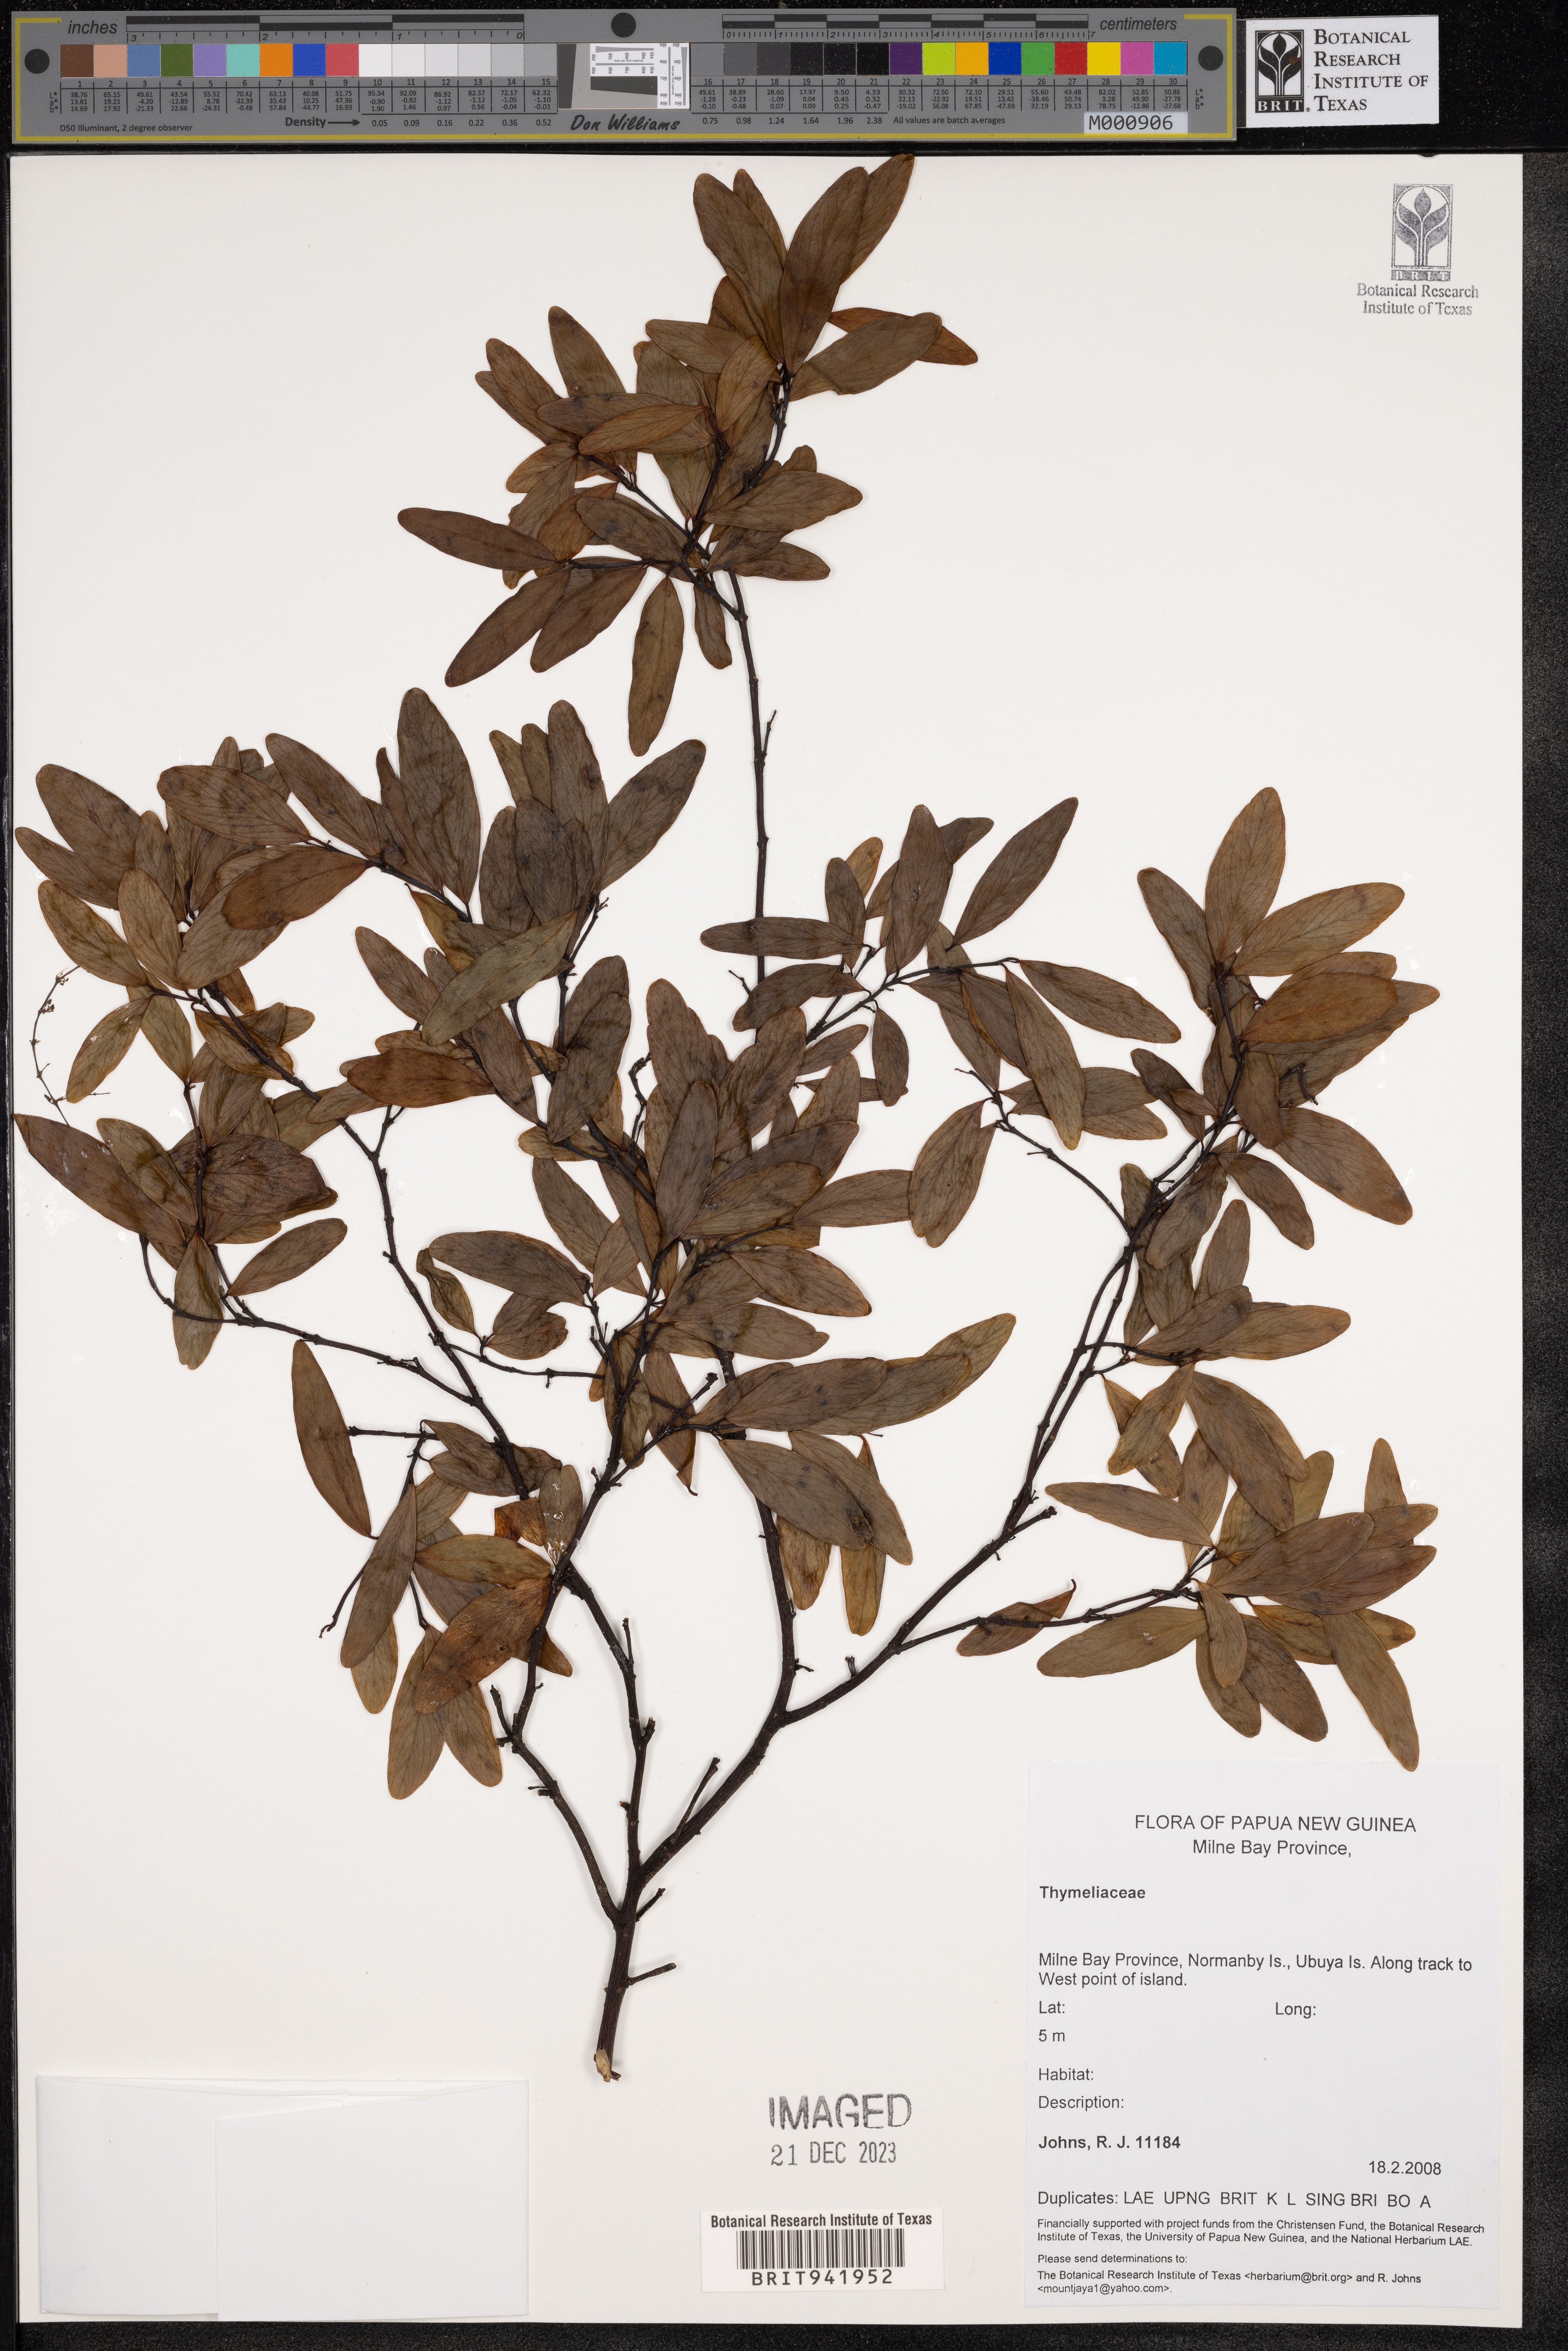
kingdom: Plantae
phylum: Tracheophyta
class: Magnoliopsida
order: Malvales
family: Thymelaeaceae
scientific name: Thymelaeaceae
